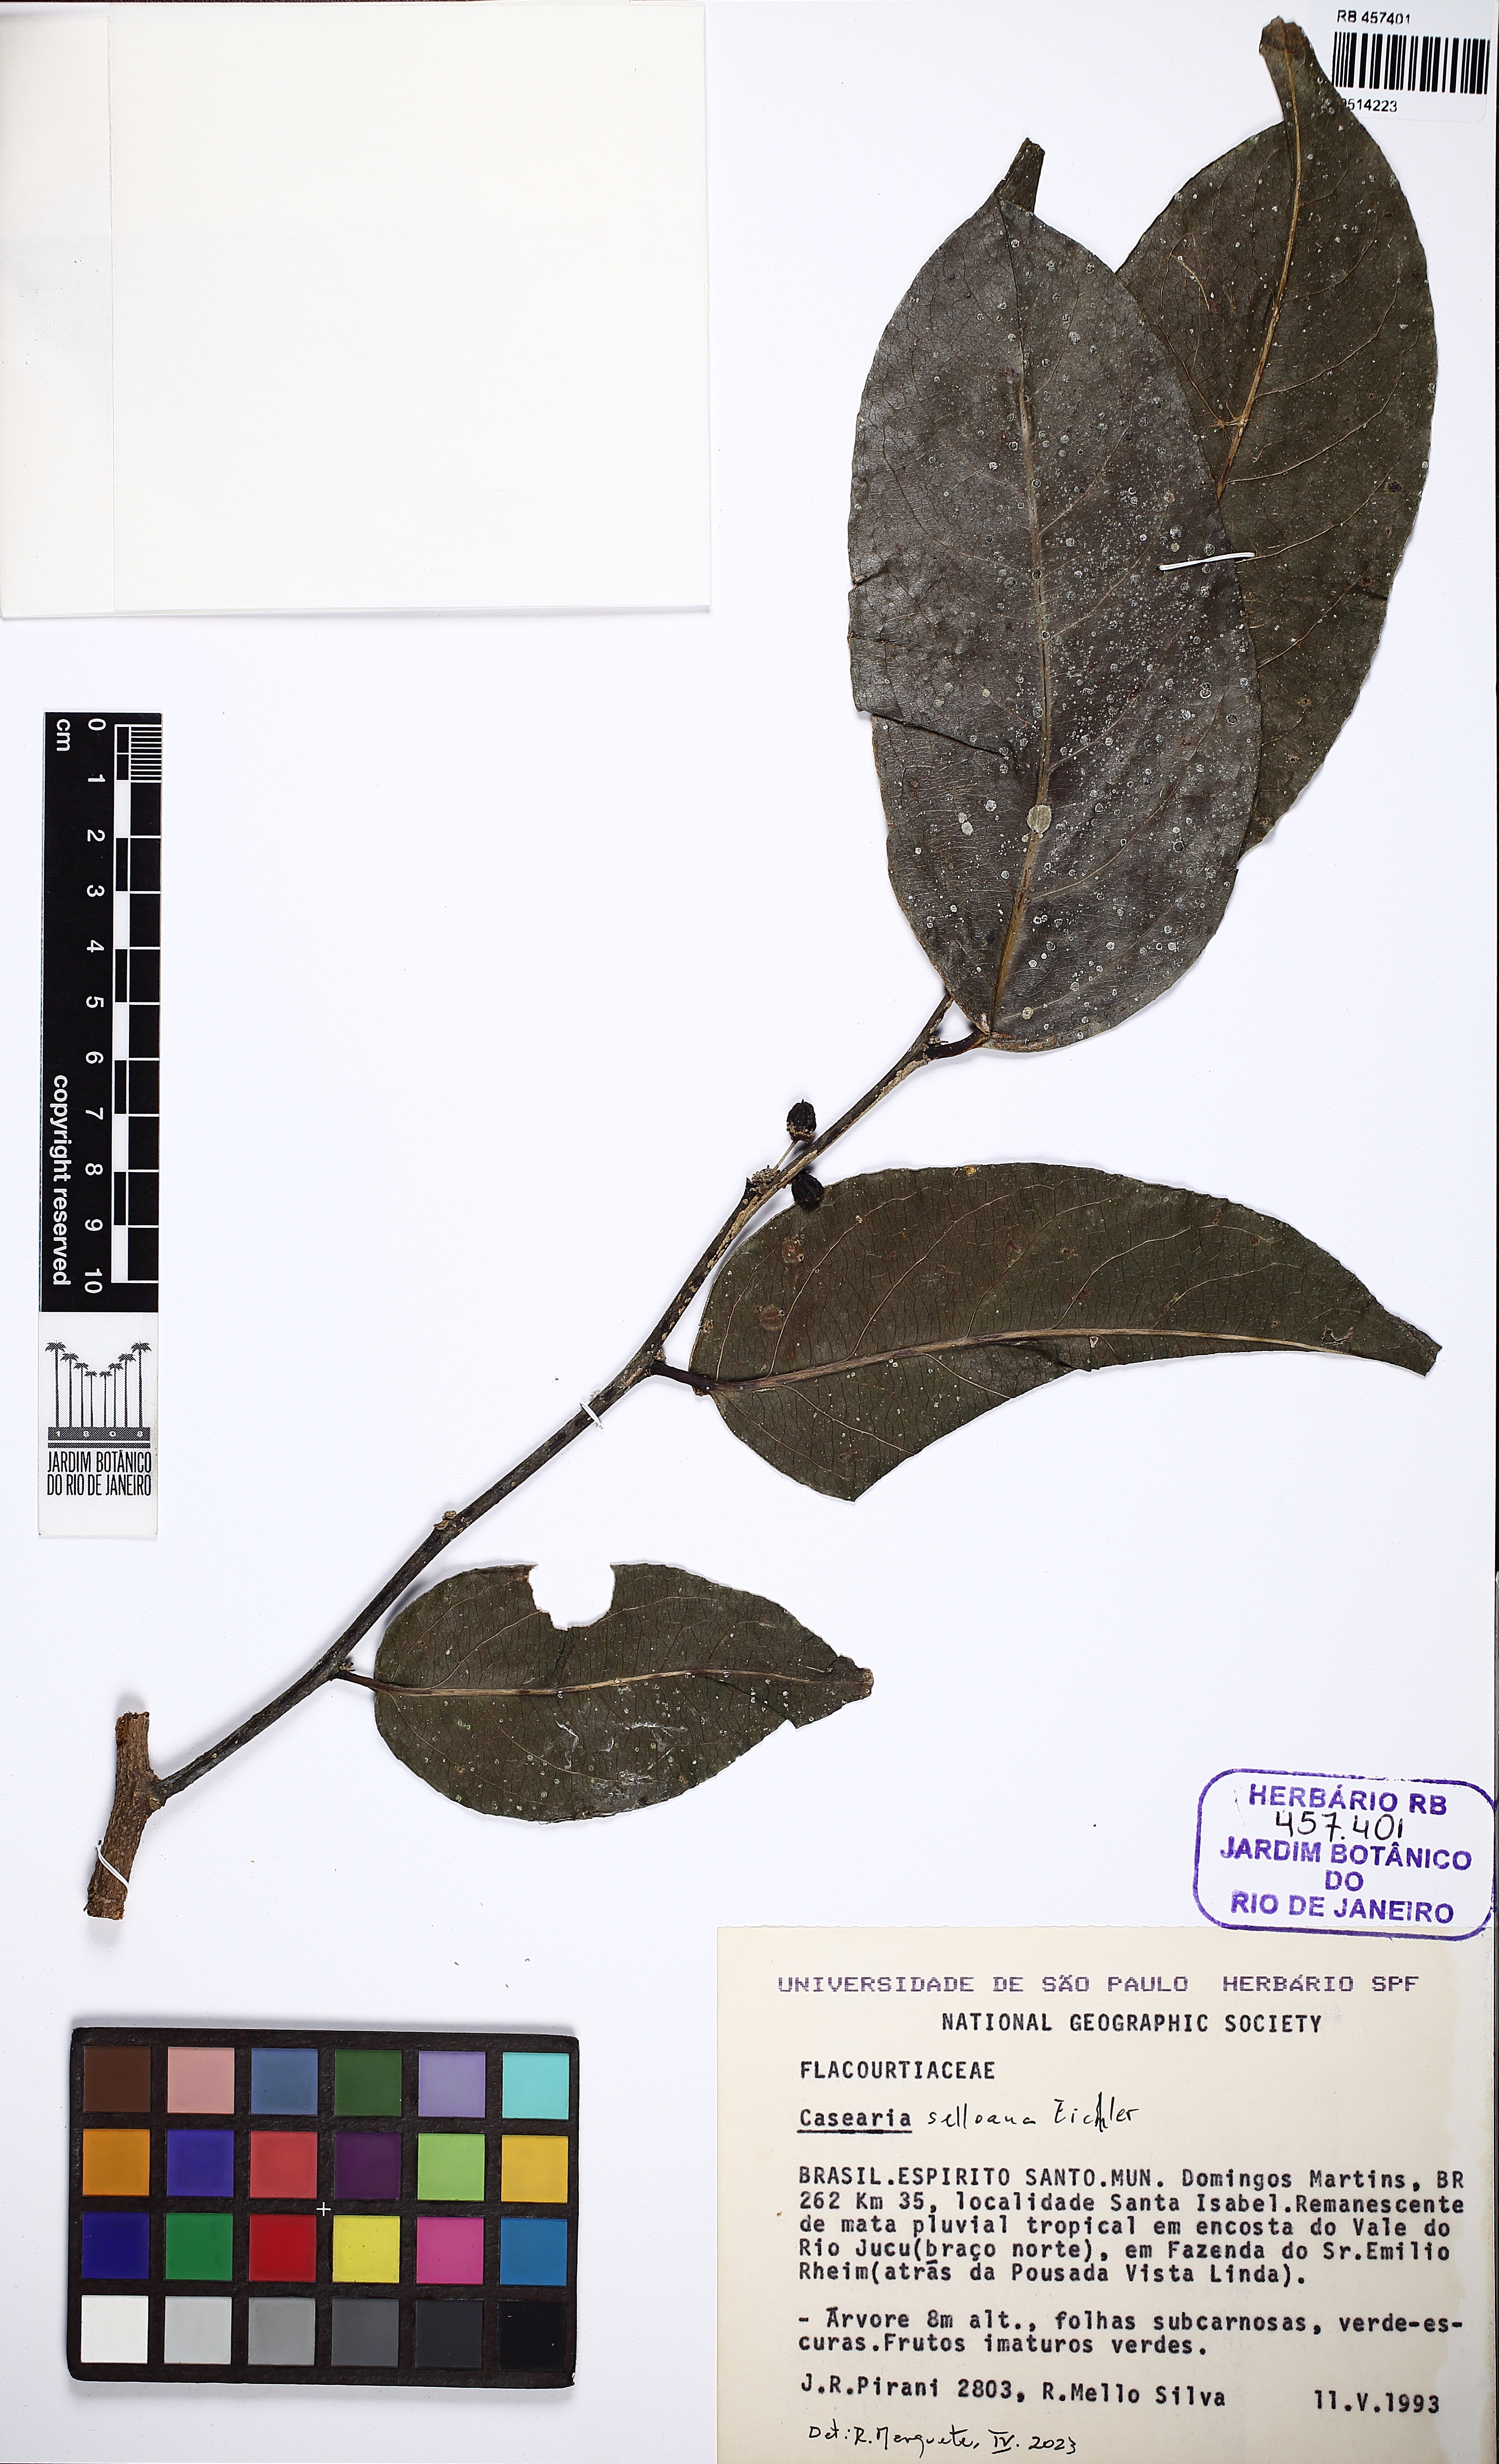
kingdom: Plantae
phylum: Tracheophyta
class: Magnoliopsida
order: Malpighiales
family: Salicaceae
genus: Casearia
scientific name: Casearia selloana
